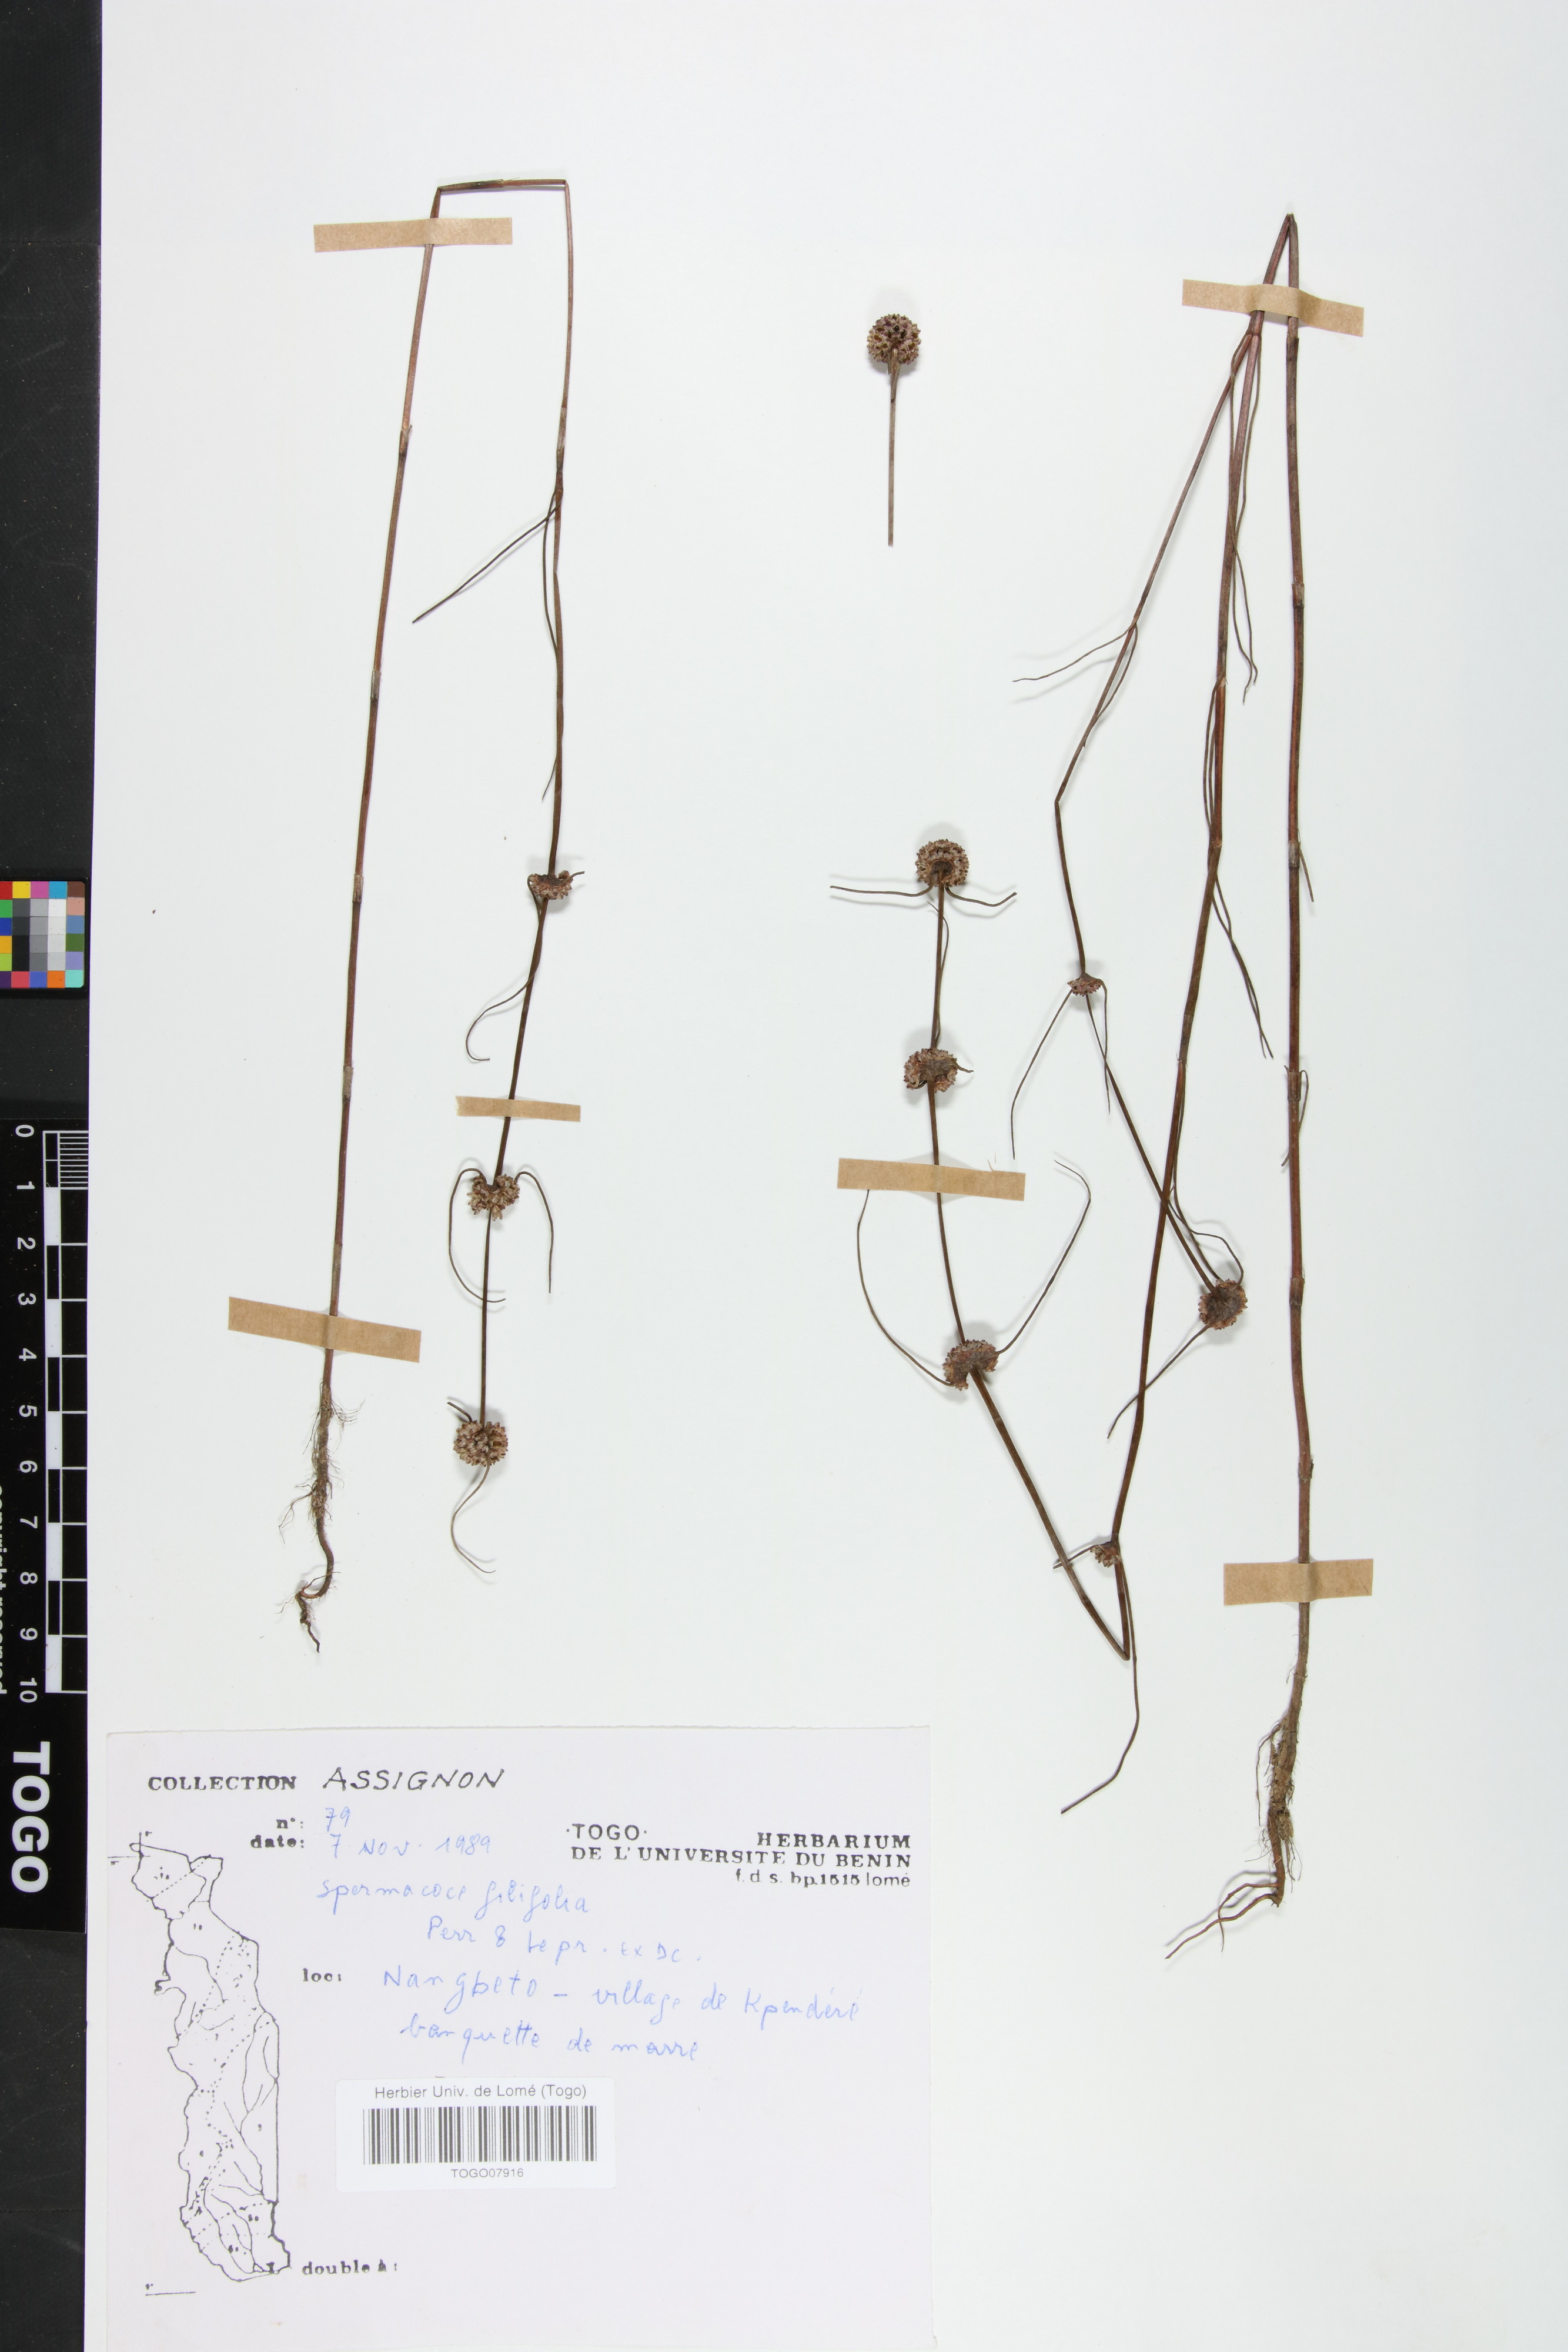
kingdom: Plantae
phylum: Tracheophyta
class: Magnoliopsida
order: Gentianales
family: Rubiaceae
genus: Spermacoce
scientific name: Spermacoce filifolia
